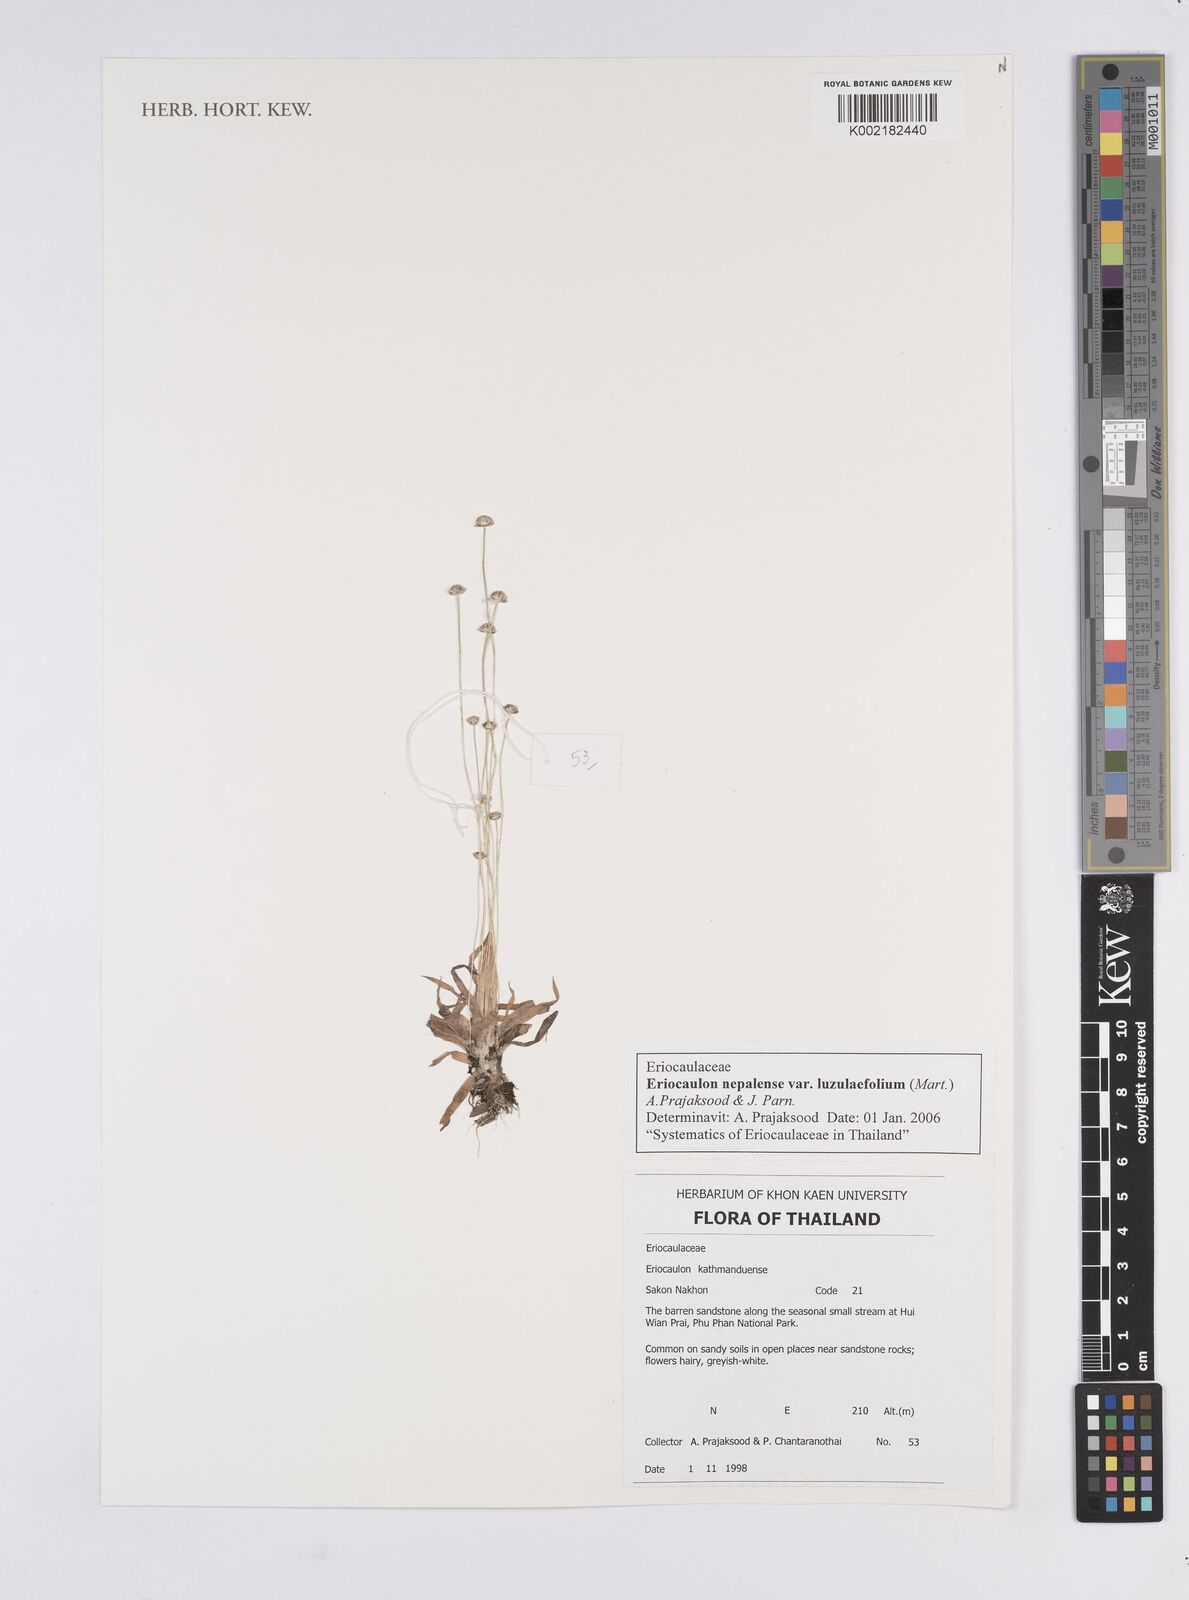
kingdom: Plantae
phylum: Tracheophyta
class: Liliopsida
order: Poales
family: Eriocaulaceae
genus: Eriocaulon
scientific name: Eriocaulon nepalense
